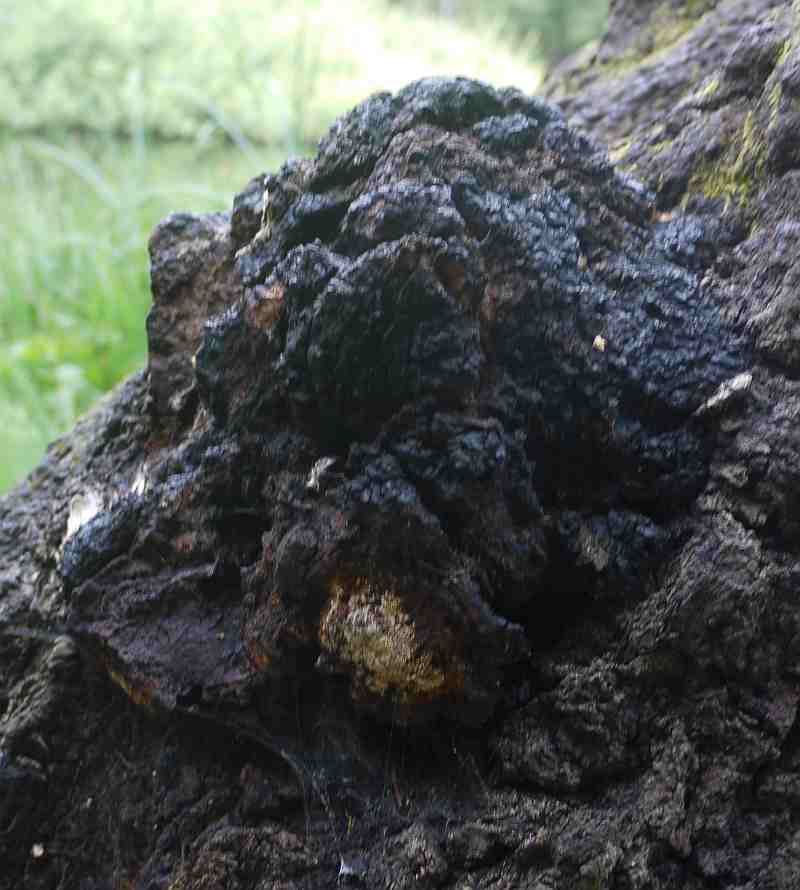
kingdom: Fungi
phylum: Basidiomycota
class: Agaricomycetes
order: Hymenochaetales
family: Hymenochaetaceae
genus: Inonotus
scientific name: Inonotus obliquus
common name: birke-spejlporesvamp
